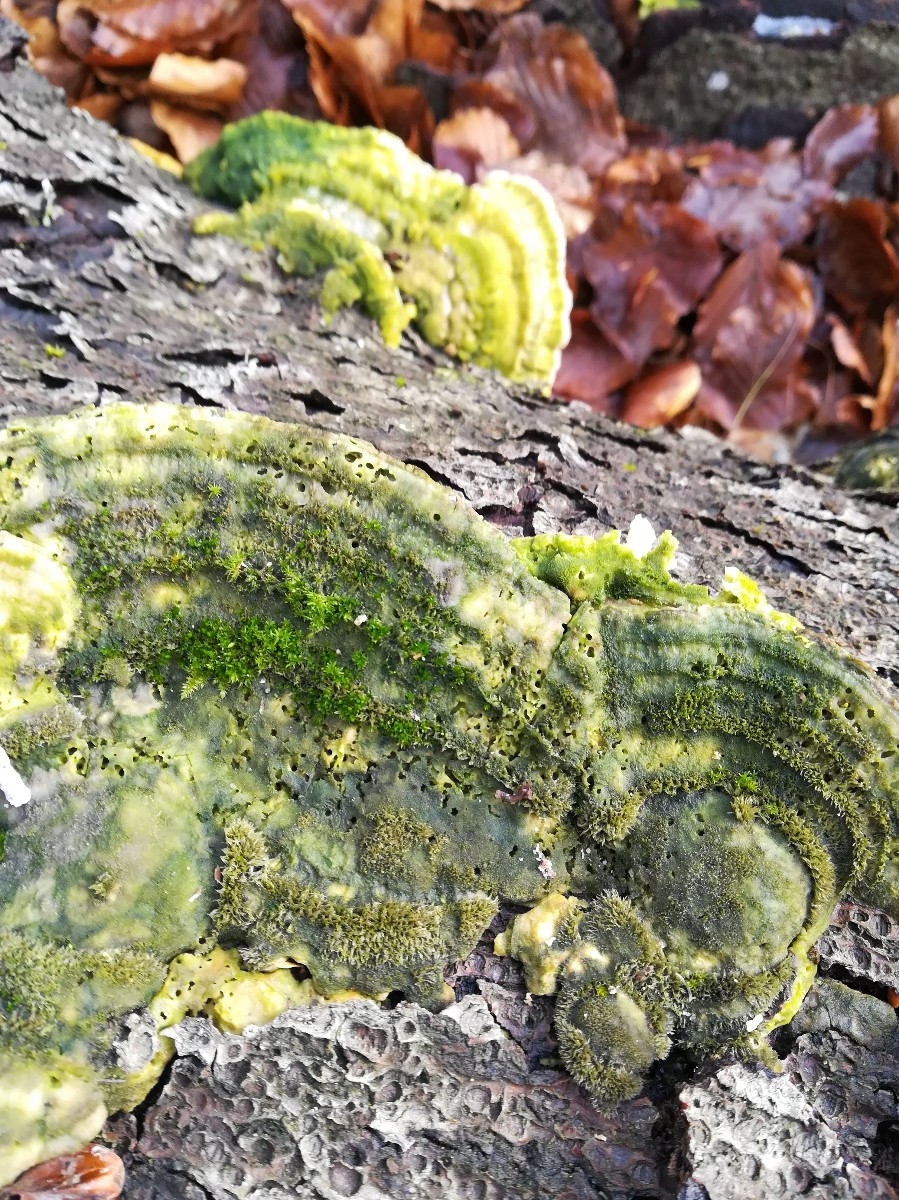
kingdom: Fungi
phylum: Basidiomycota
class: Agaricomycetes
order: Polyporales
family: Polyporaceae
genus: Trametes
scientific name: Trametes gibbosa
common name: puklet læderporesvamp
